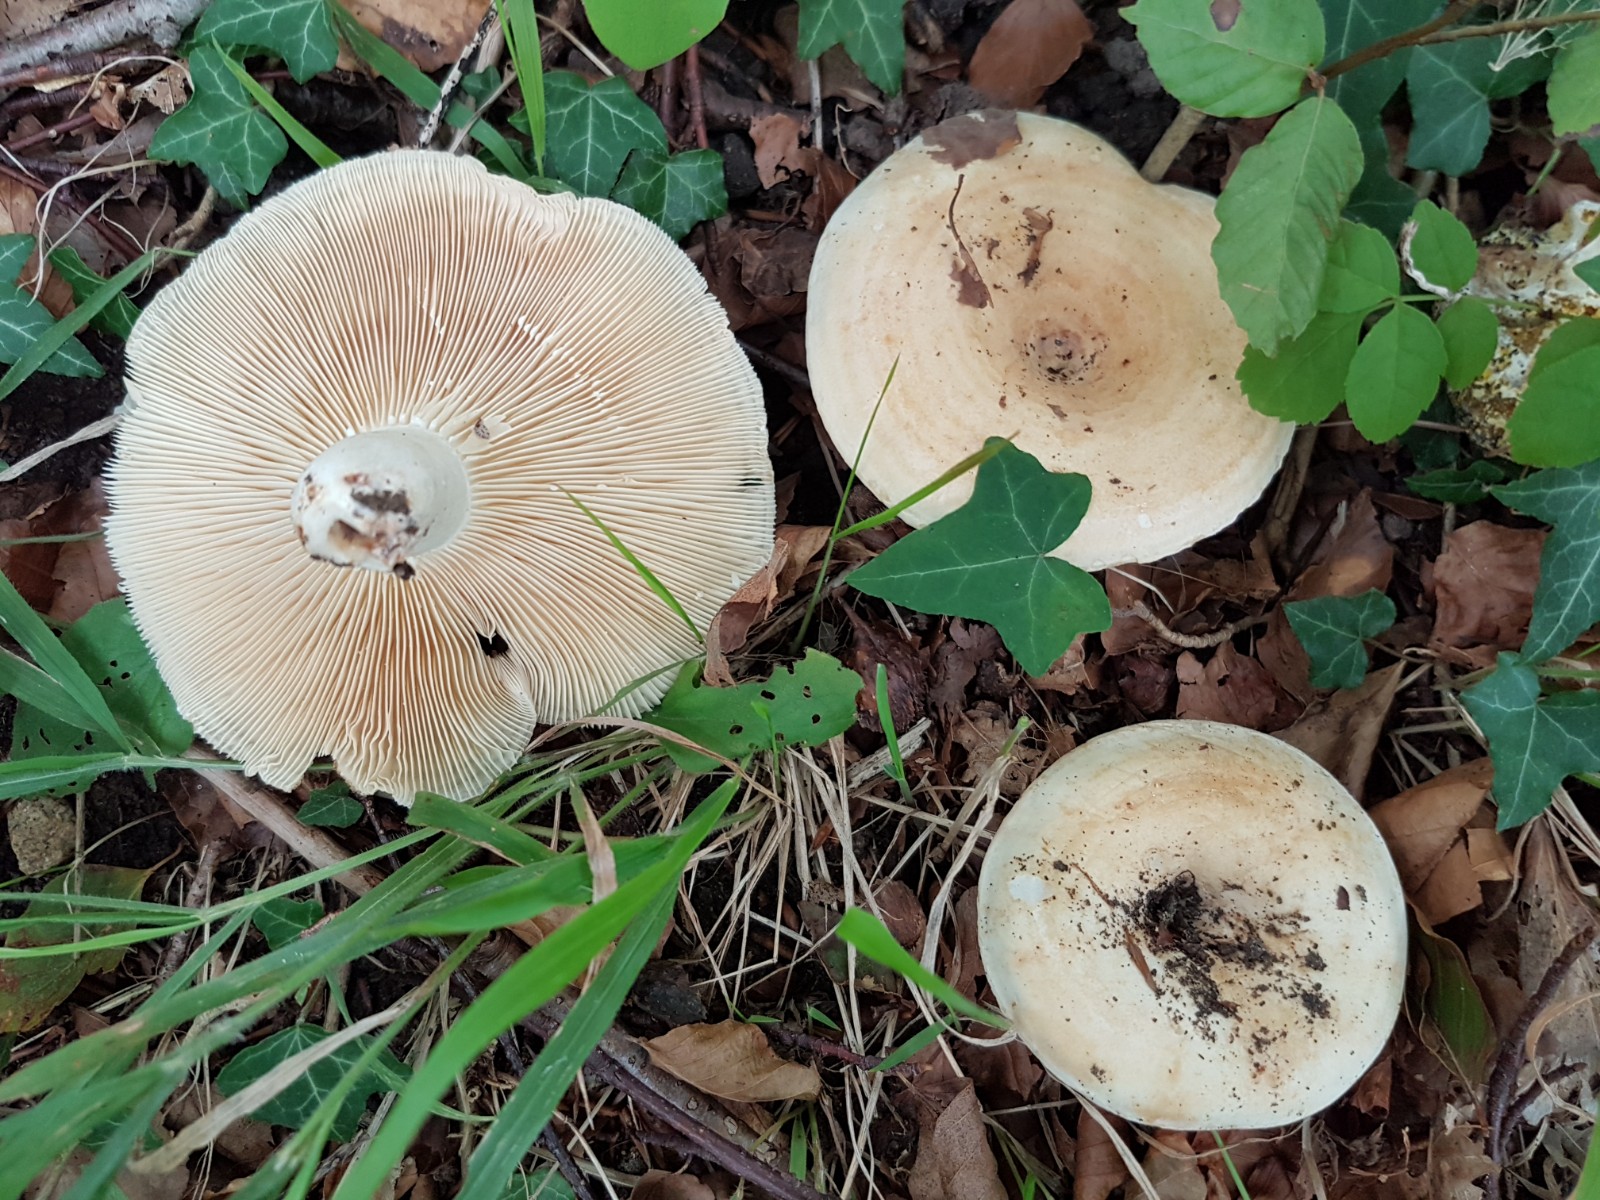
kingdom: Fungi
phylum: Basidiomycota
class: Agaricomycetes
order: Russulales
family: Russulaceae
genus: Lactarius
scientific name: Lactarius zonarius
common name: zoneret mælkehat
